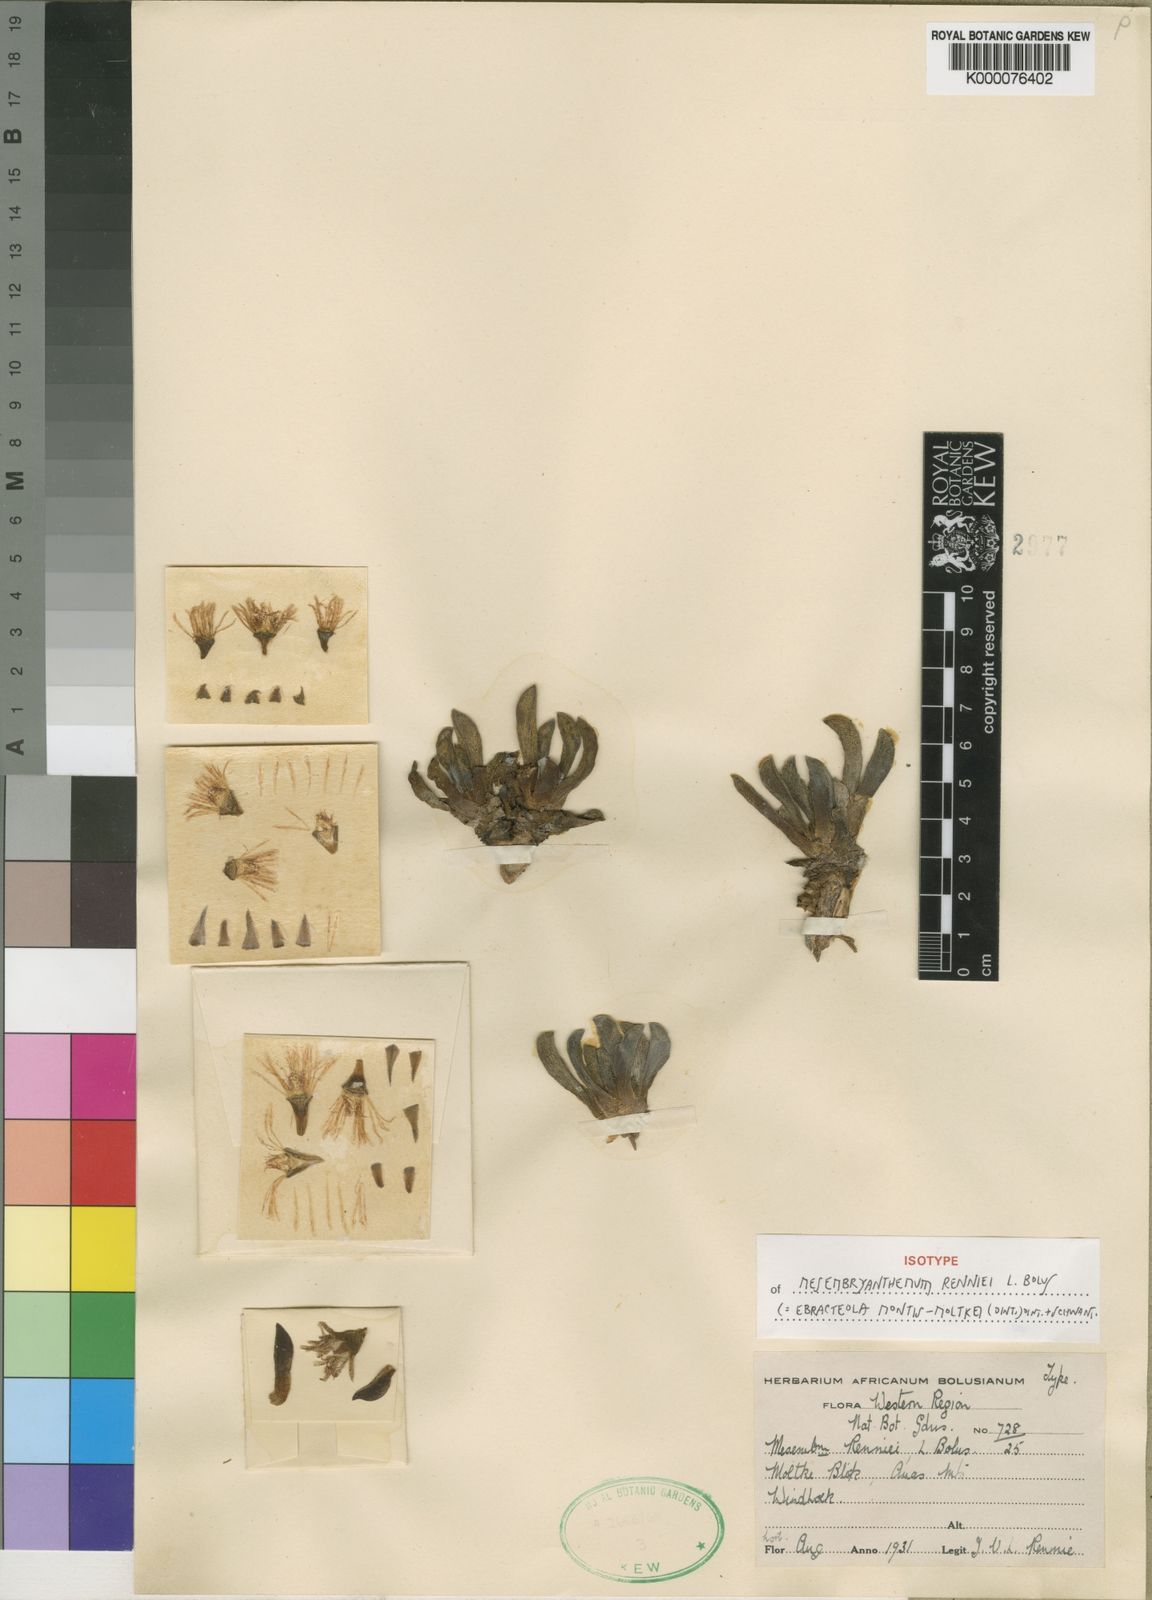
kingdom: Plantae
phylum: Tracheophyta
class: Magnoliopsida
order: Caryophyllales
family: Aizoaceae
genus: Ebracteola
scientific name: Ebracteola montis-moltkei
